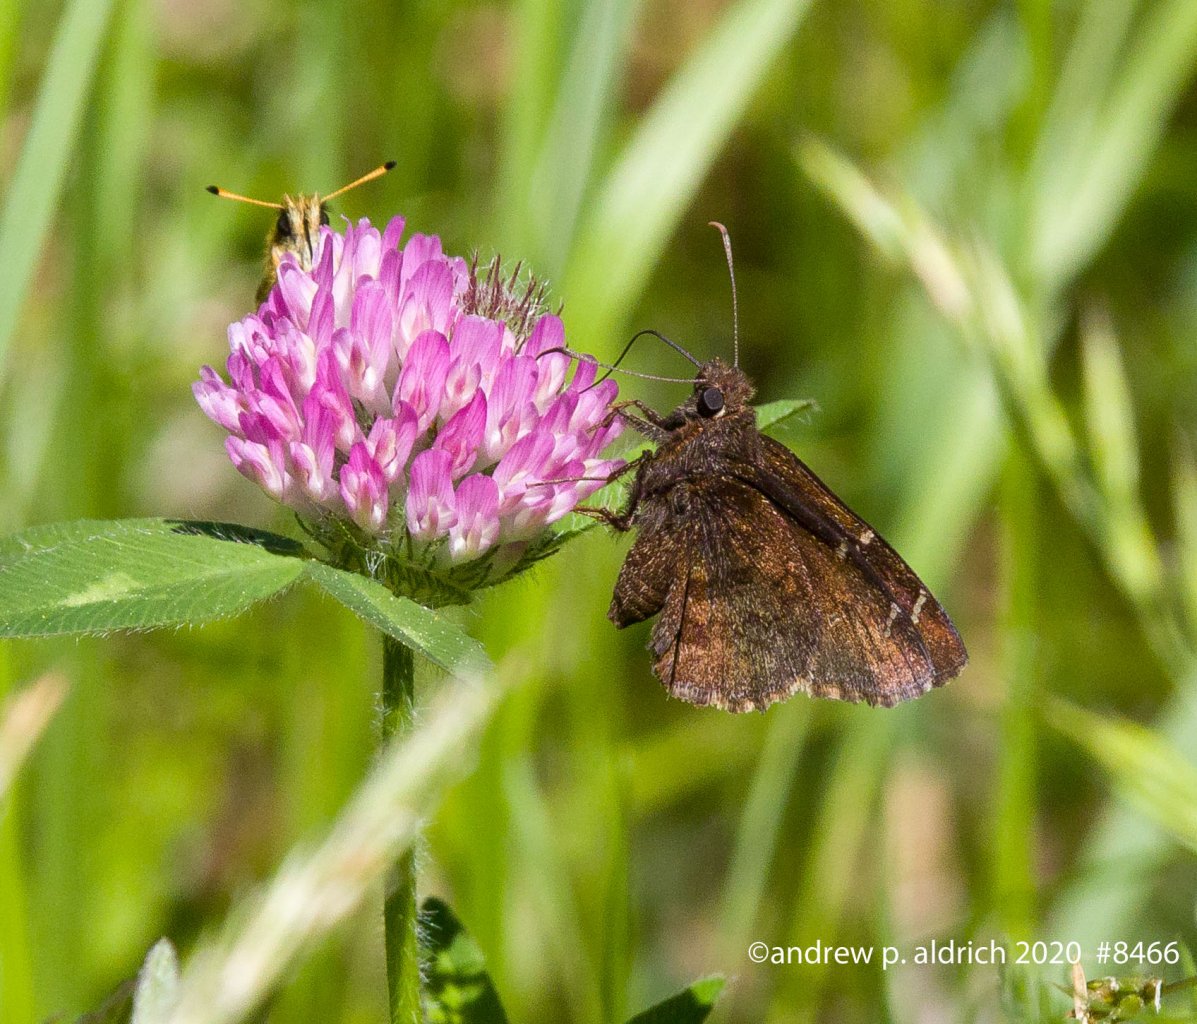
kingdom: Animalia
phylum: Arthropoda
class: Insecta
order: Lepidoptera
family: Hesperiidae
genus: Autochton
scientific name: Autochton
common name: Northern Cloudywing
